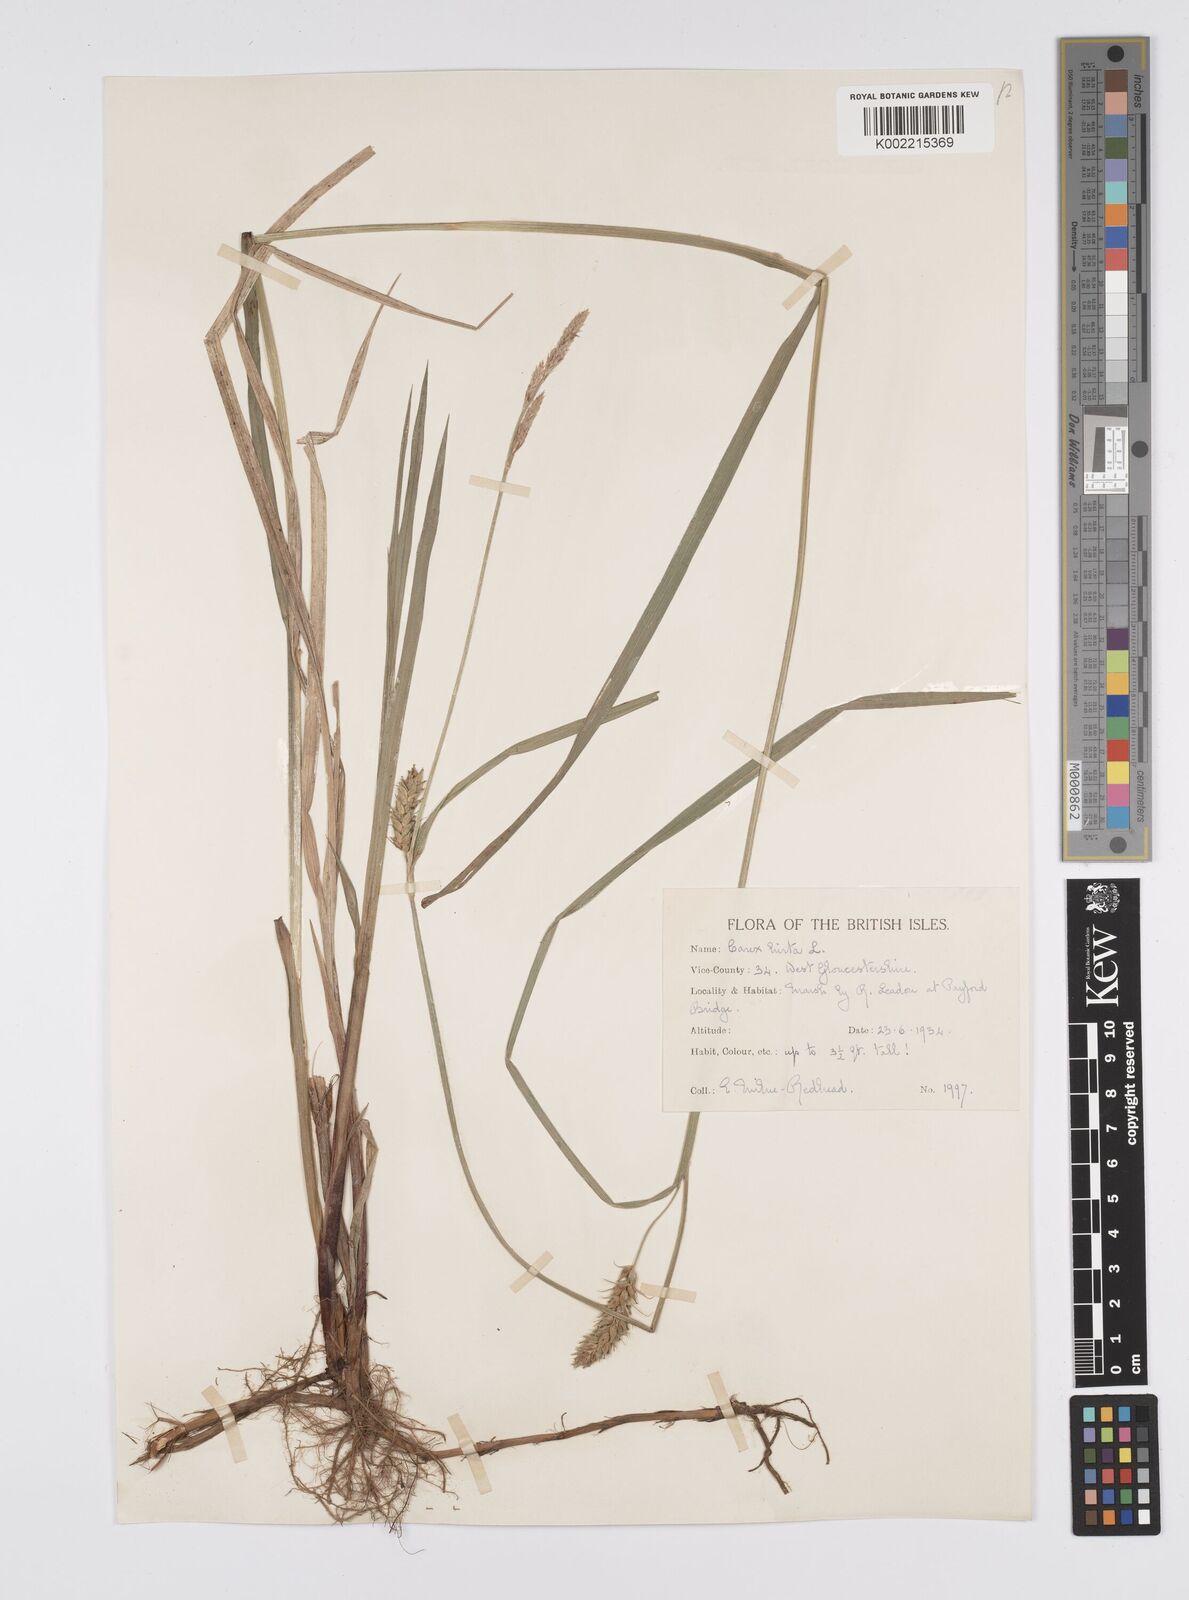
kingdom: Plantae
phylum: Tracheophyta
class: Liliopsida
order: Poales
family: Cyperaceae
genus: Carex
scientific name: Carex hirta
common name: Hairy sedge
